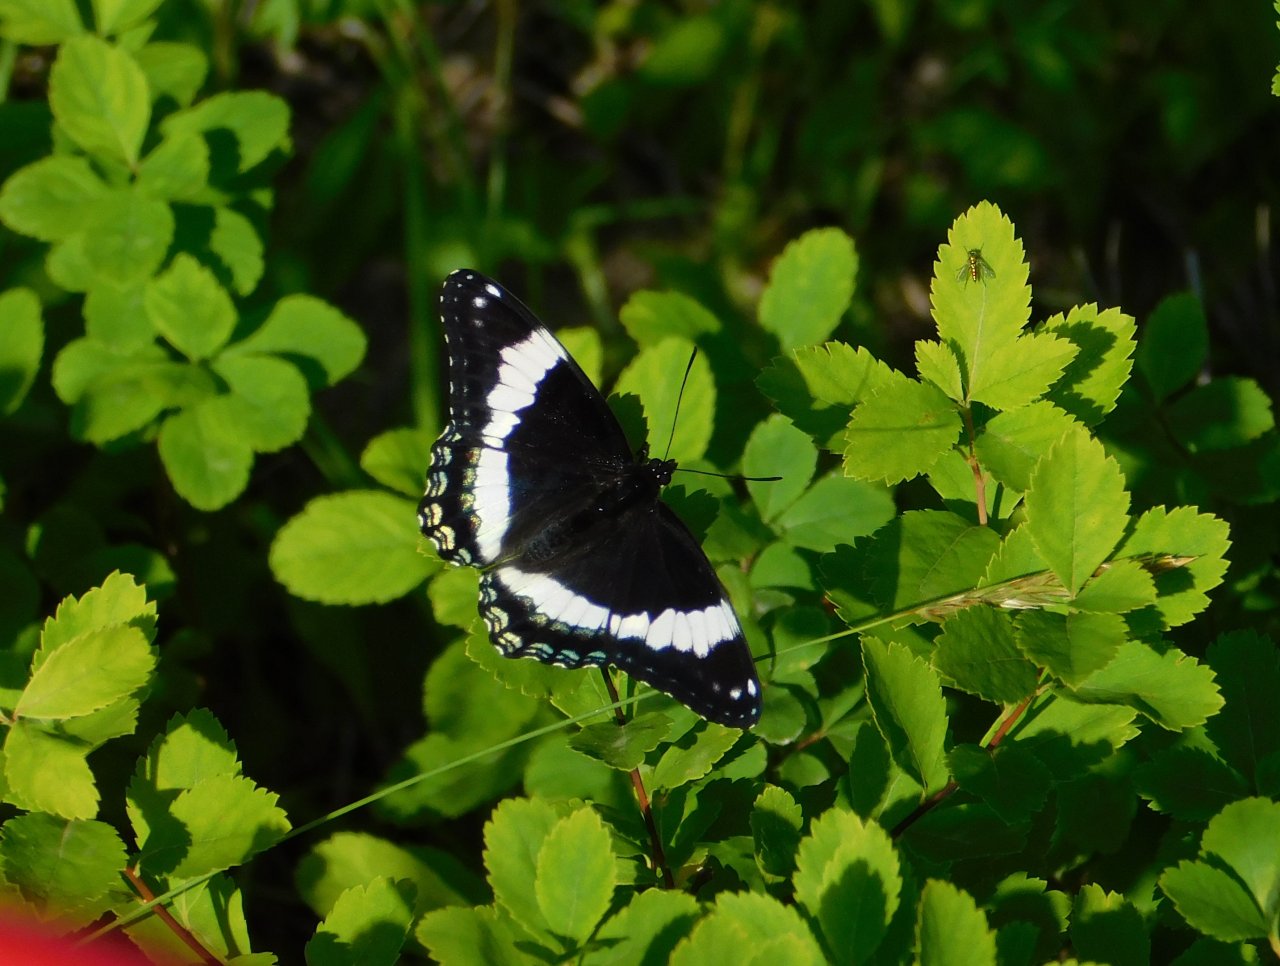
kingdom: Animalia
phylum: Arthropoda
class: Insecta
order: Lepidoptera
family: Nymphalidae
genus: Limenitis
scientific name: Limenitis arthemis
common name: Red-spotted Admiral
